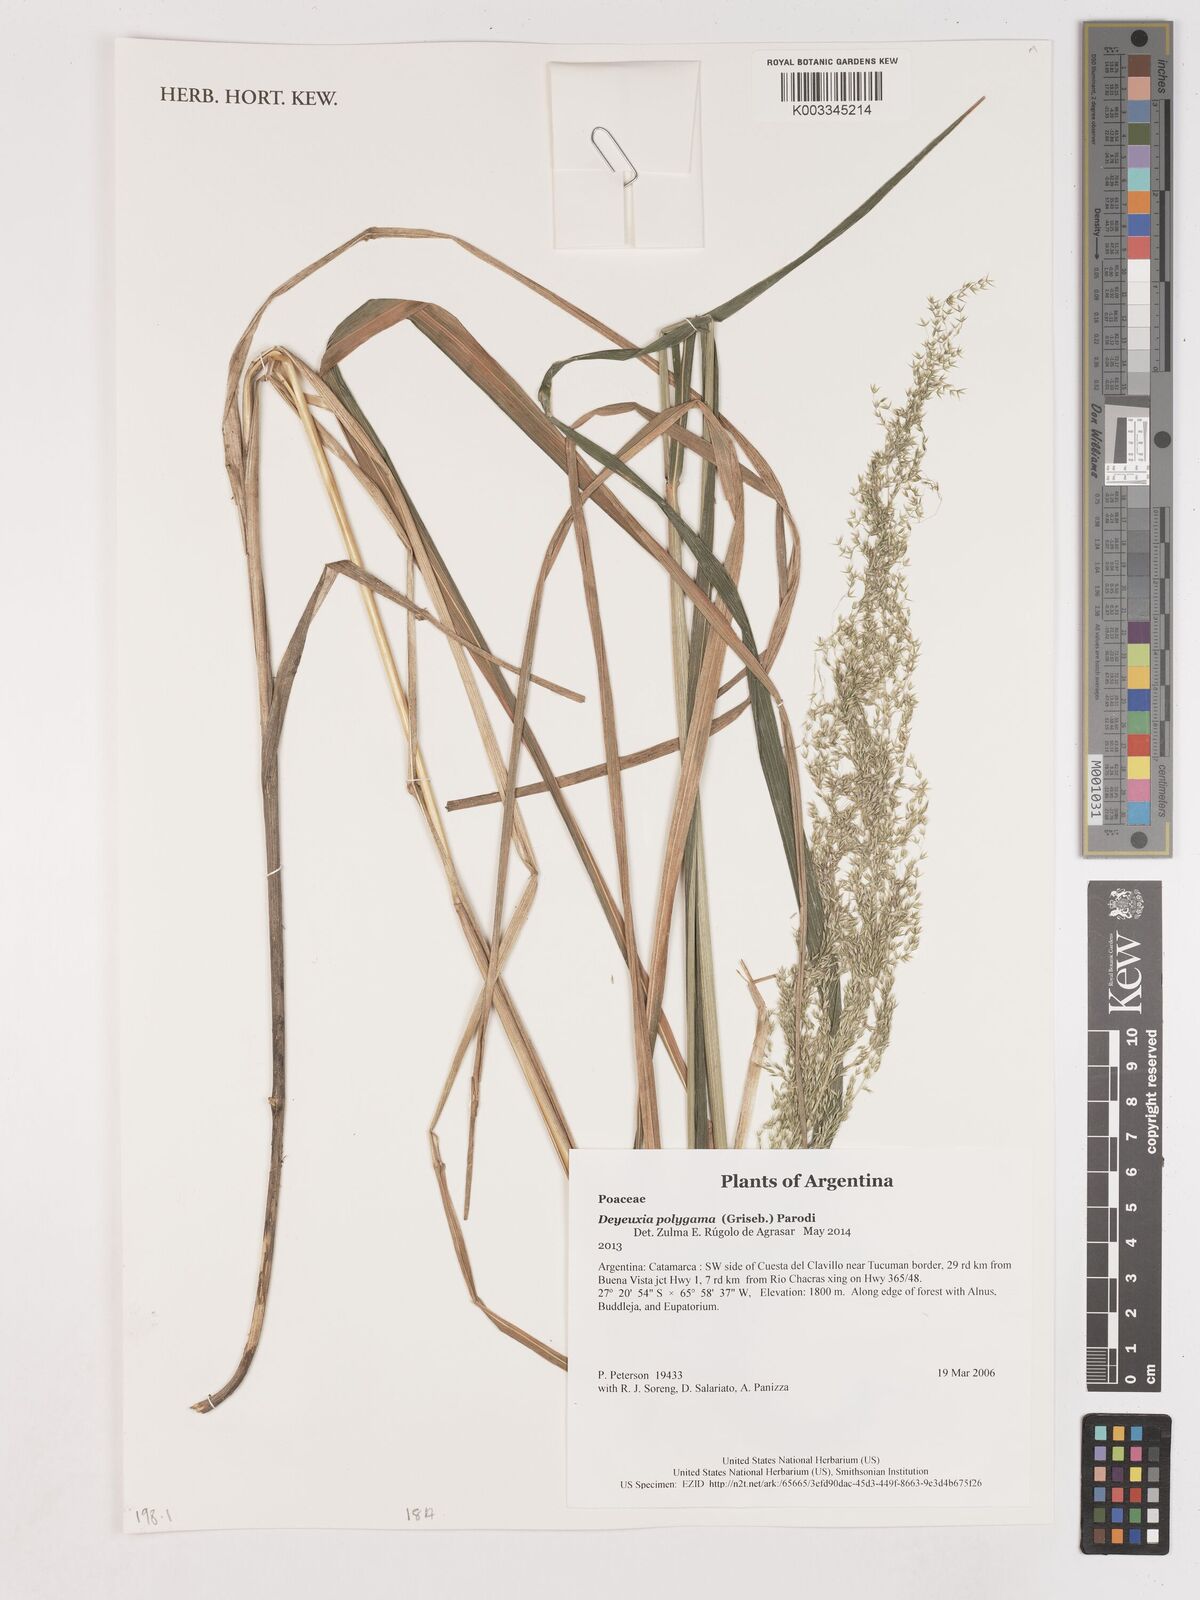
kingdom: Plantae
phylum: Tracheophyta
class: Liliopsida
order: Poales
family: Poaceae
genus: Cinnagrostis
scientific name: Cinnagrostis polygama
